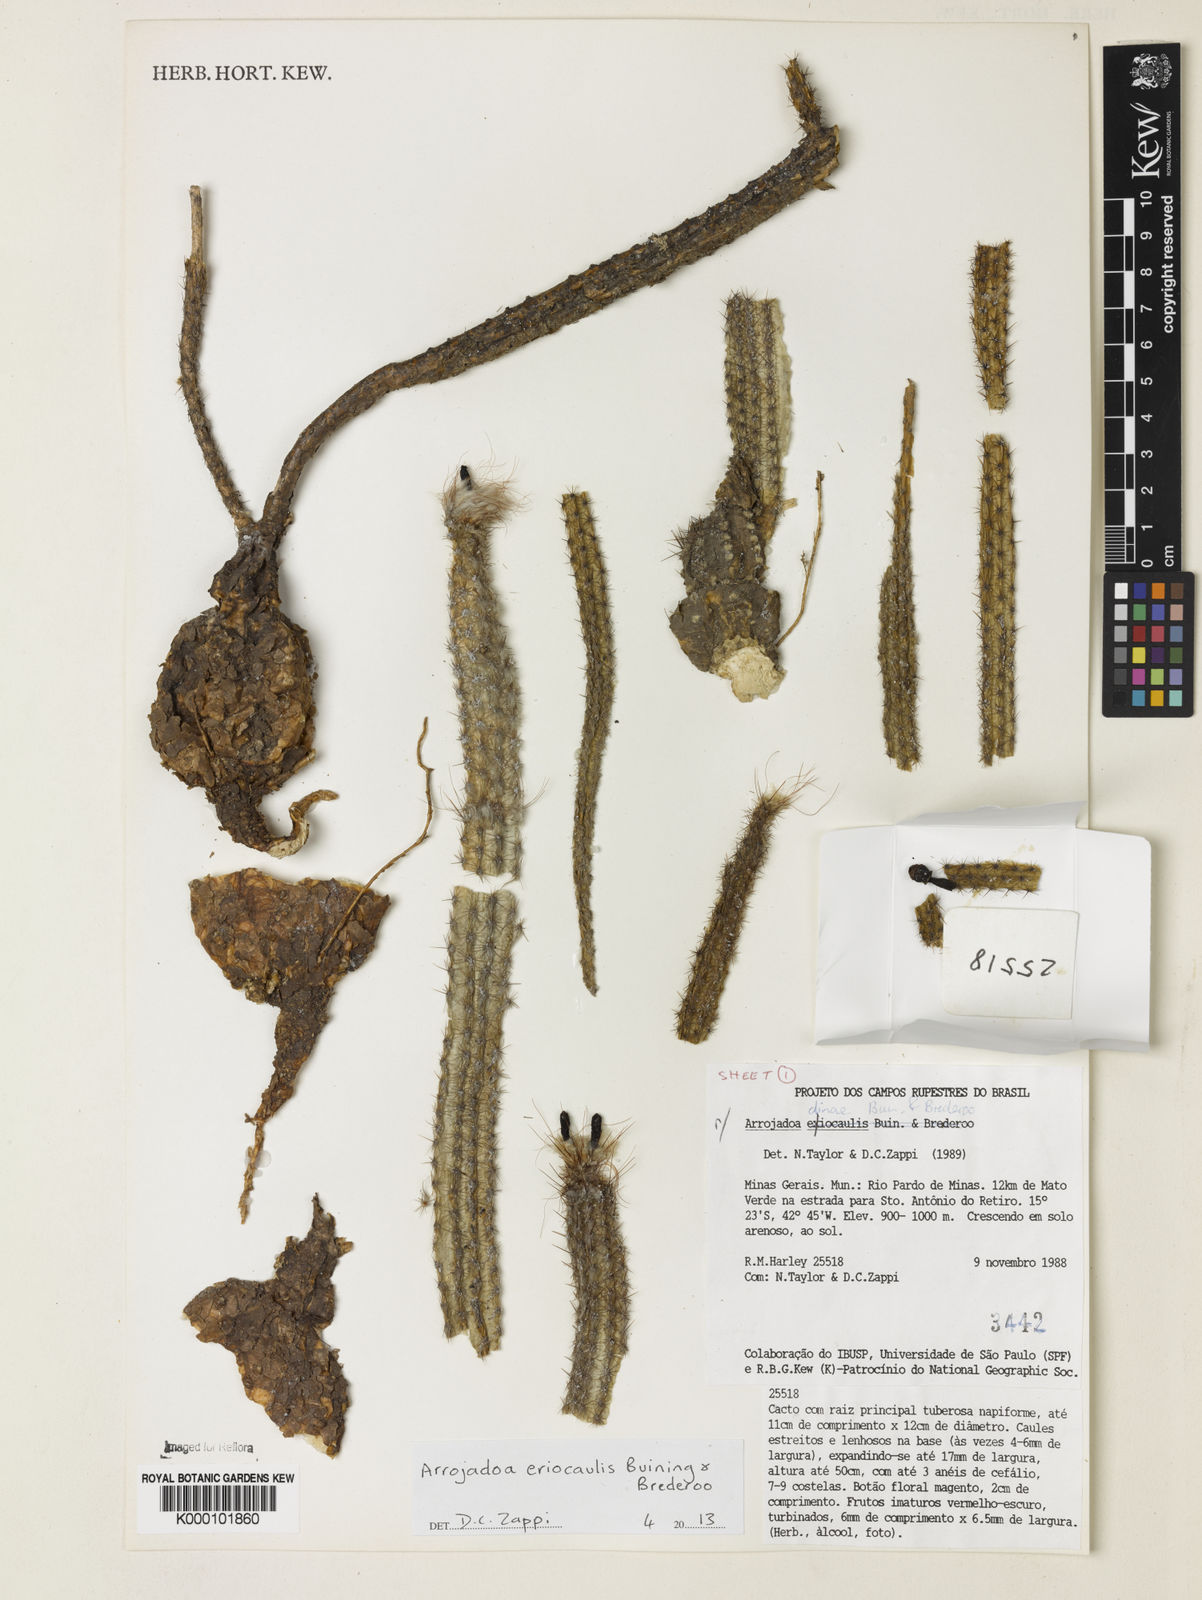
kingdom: Plantae
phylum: Tracheophyta
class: Magnoliopsida
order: Caryophyllales
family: Cactaceae
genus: Arrojadoa
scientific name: Arrojadoa eriocaulis
